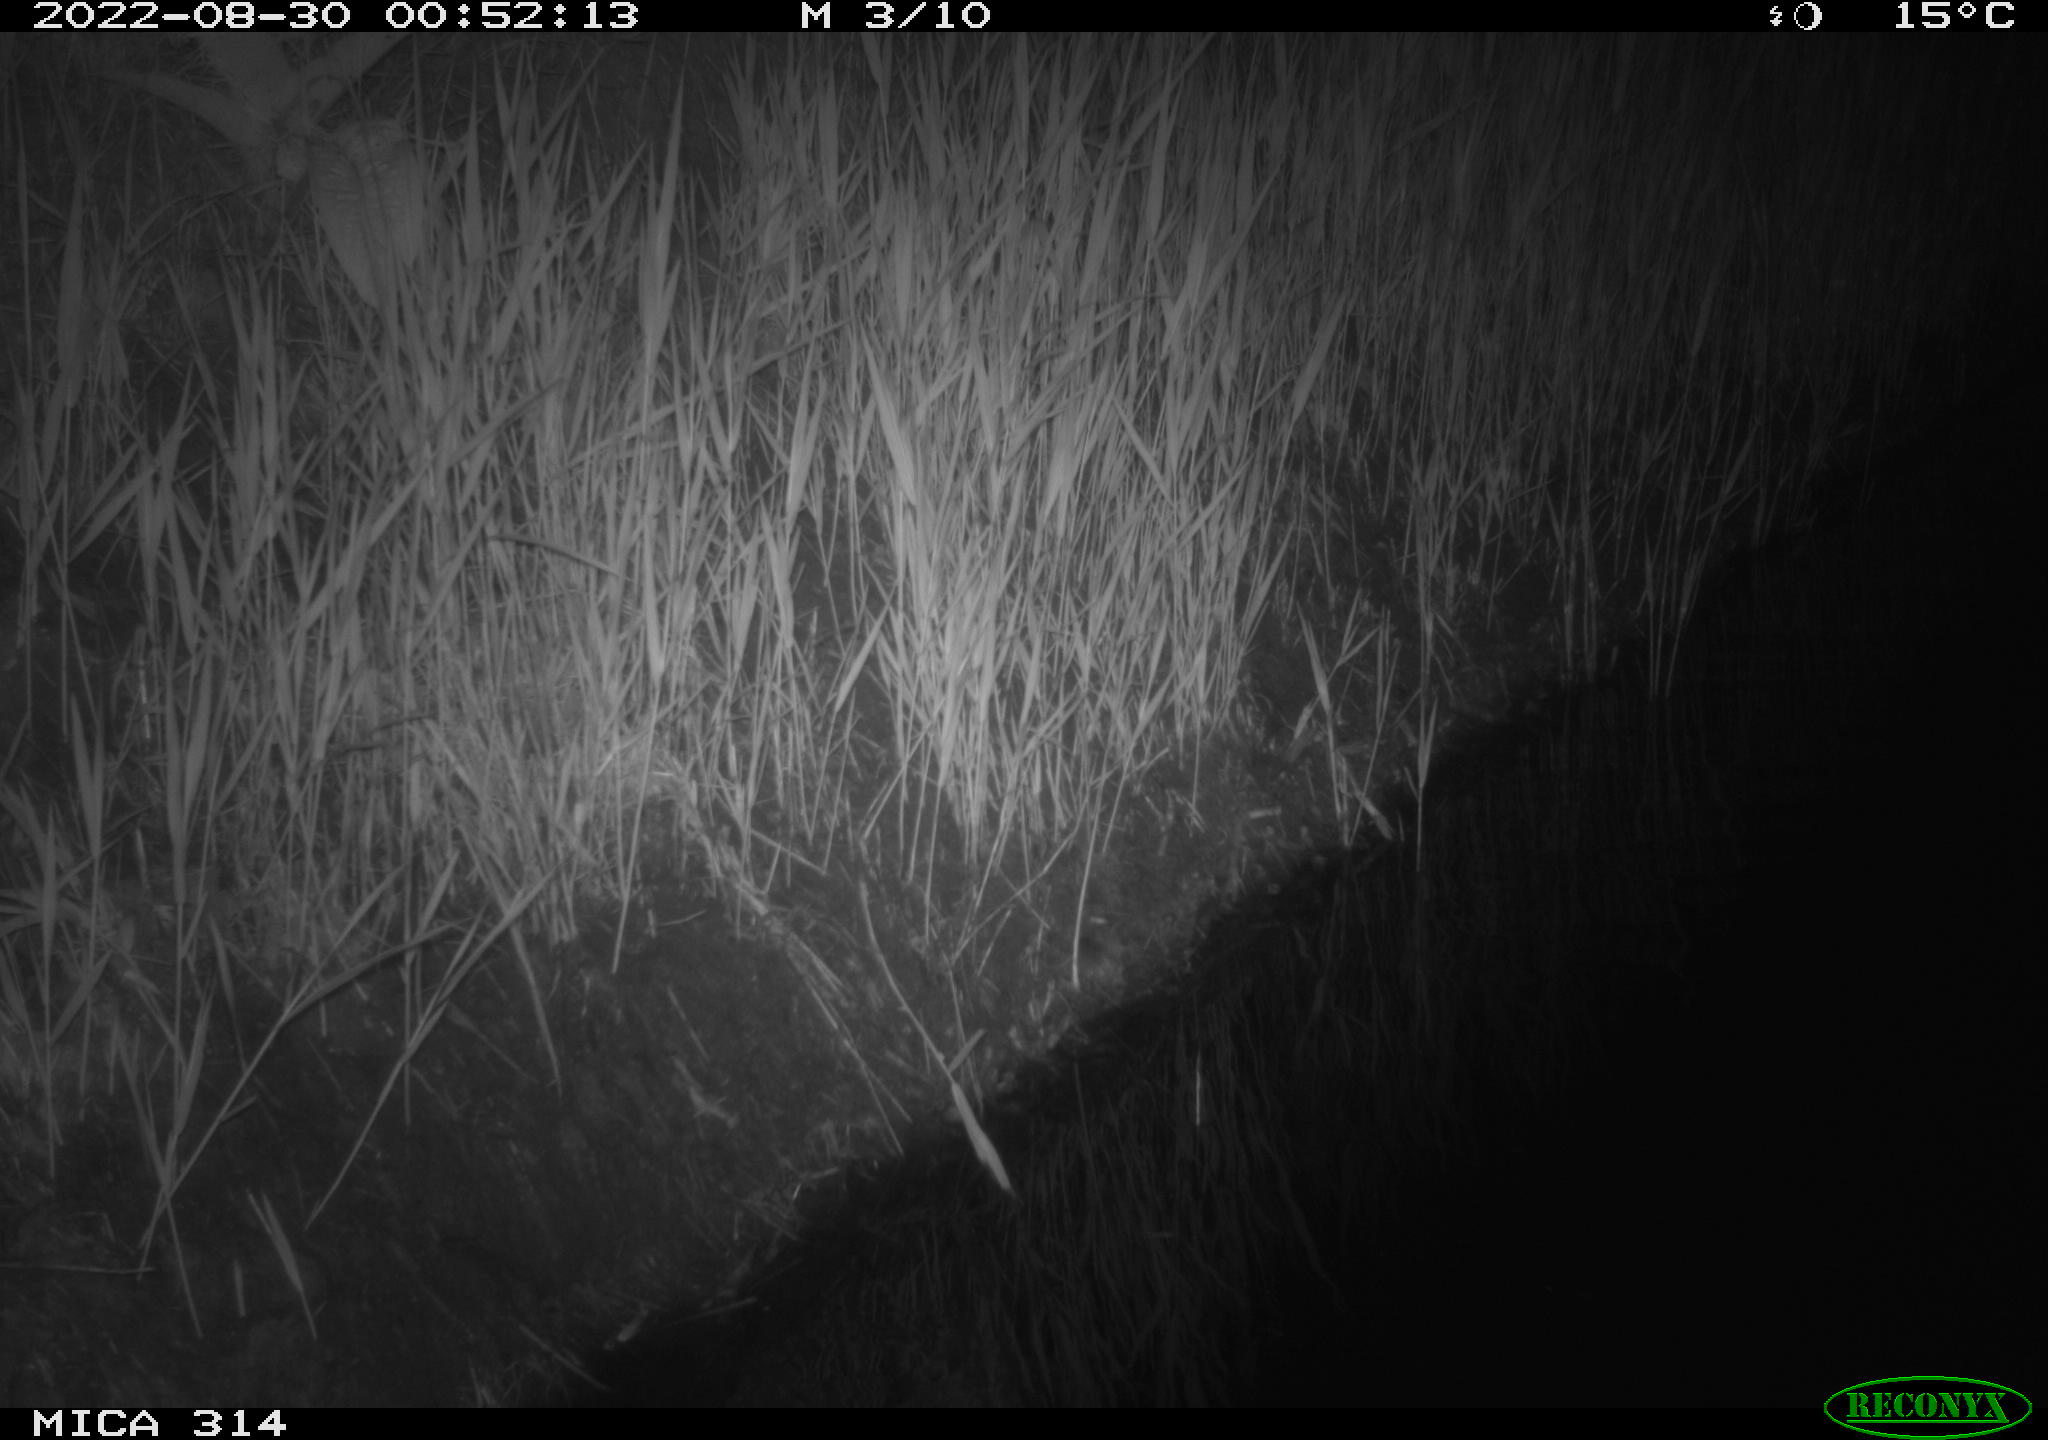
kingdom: Animalia
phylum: Chordata
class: Mammalia
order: Rodentia
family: Muridae
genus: Rattus
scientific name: Rattus norvegicus
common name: Brown rat
